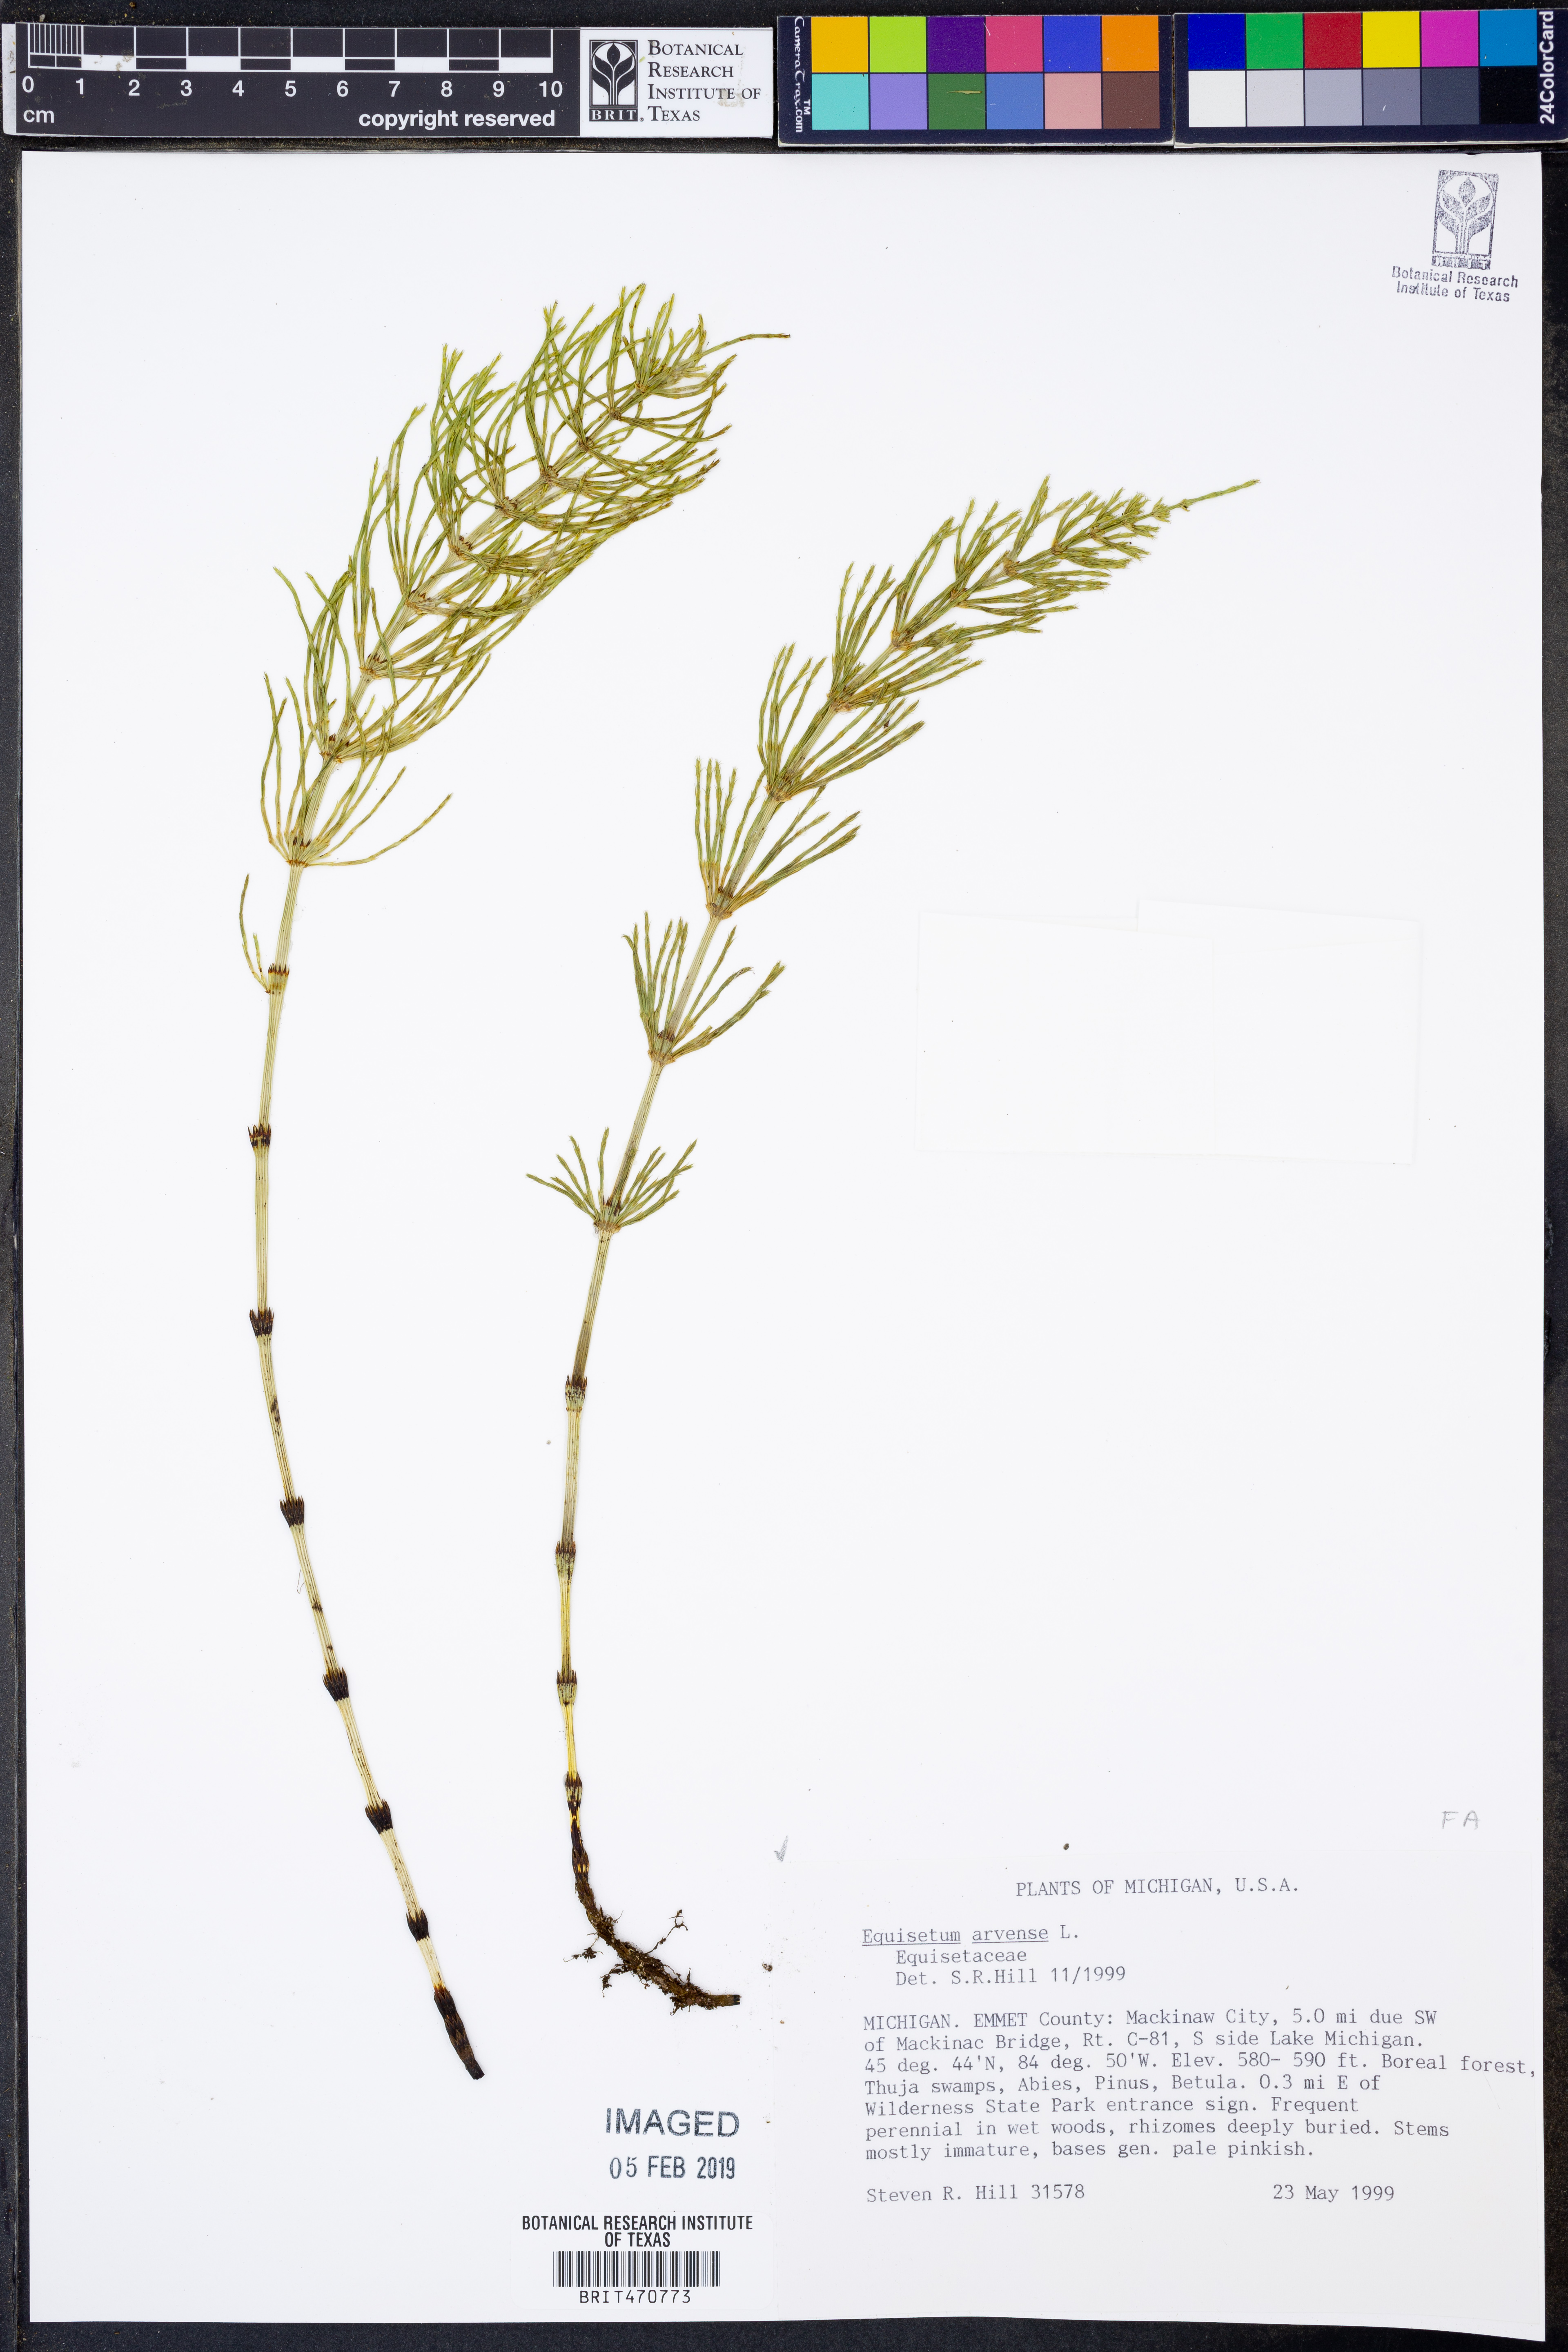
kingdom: Plantae
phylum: Tracheophyta
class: Polypodiopsida
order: Equisetales
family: Equisetaceae
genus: Equisetum
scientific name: Equisetum arvense
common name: Field horsetail
